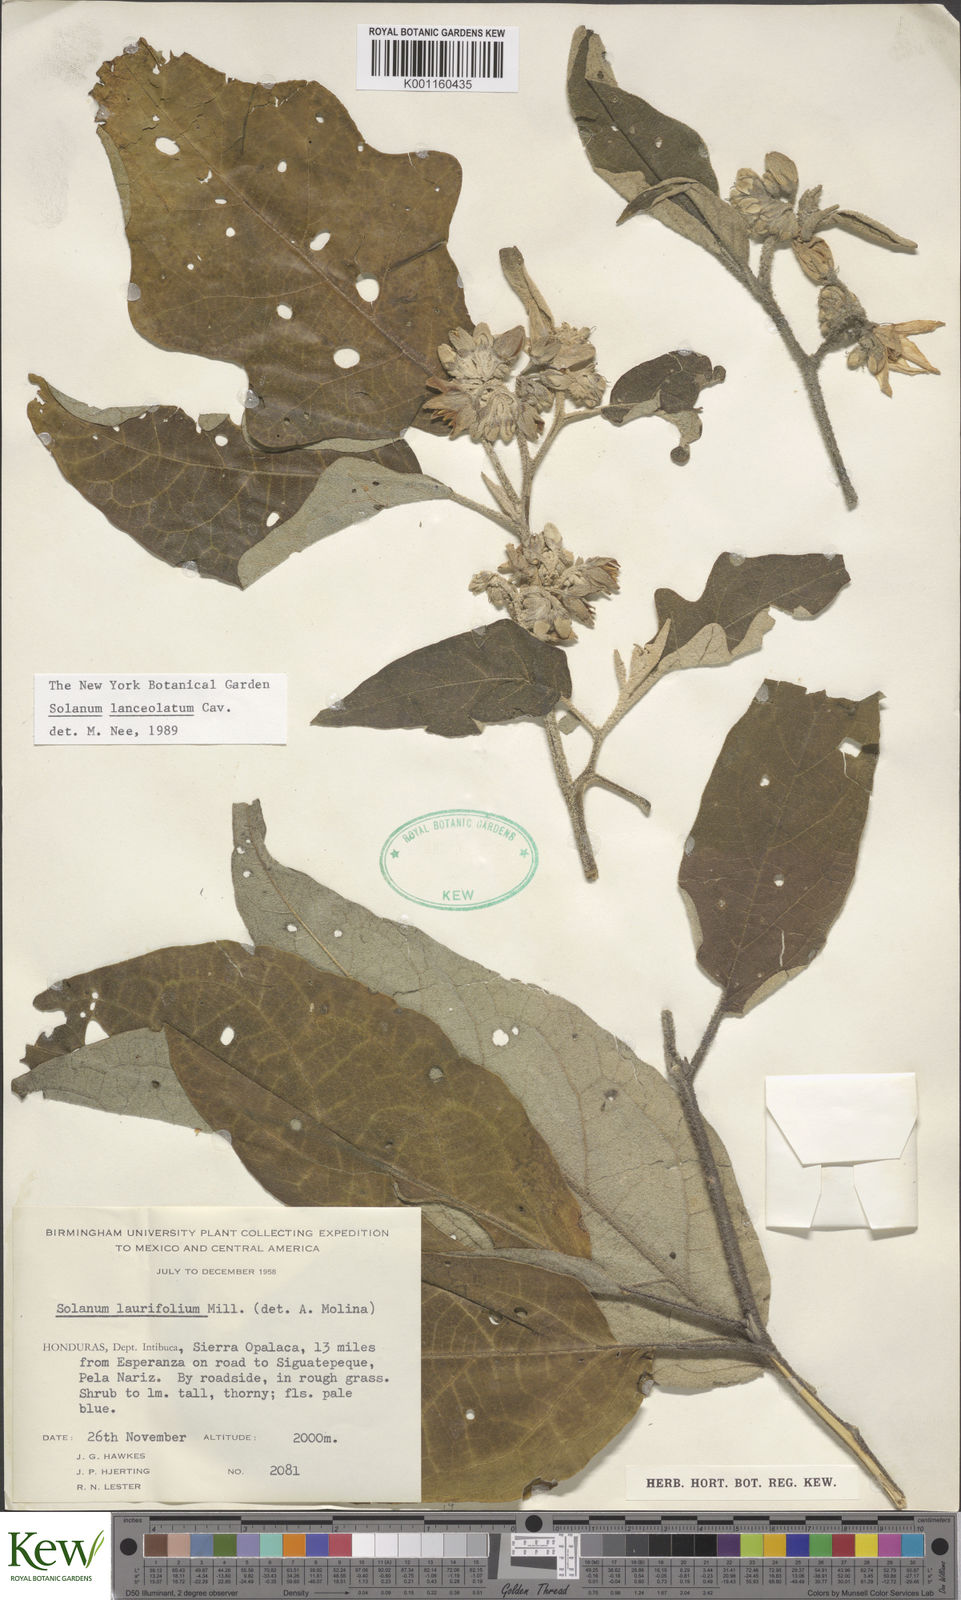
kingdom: Plantae
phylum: Tracheophyta
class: Magnoliopsida
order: Solanales
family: Solanaceae
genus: Solanum
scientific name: Solanum lanceolatum
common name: Orangeberry nightshade
